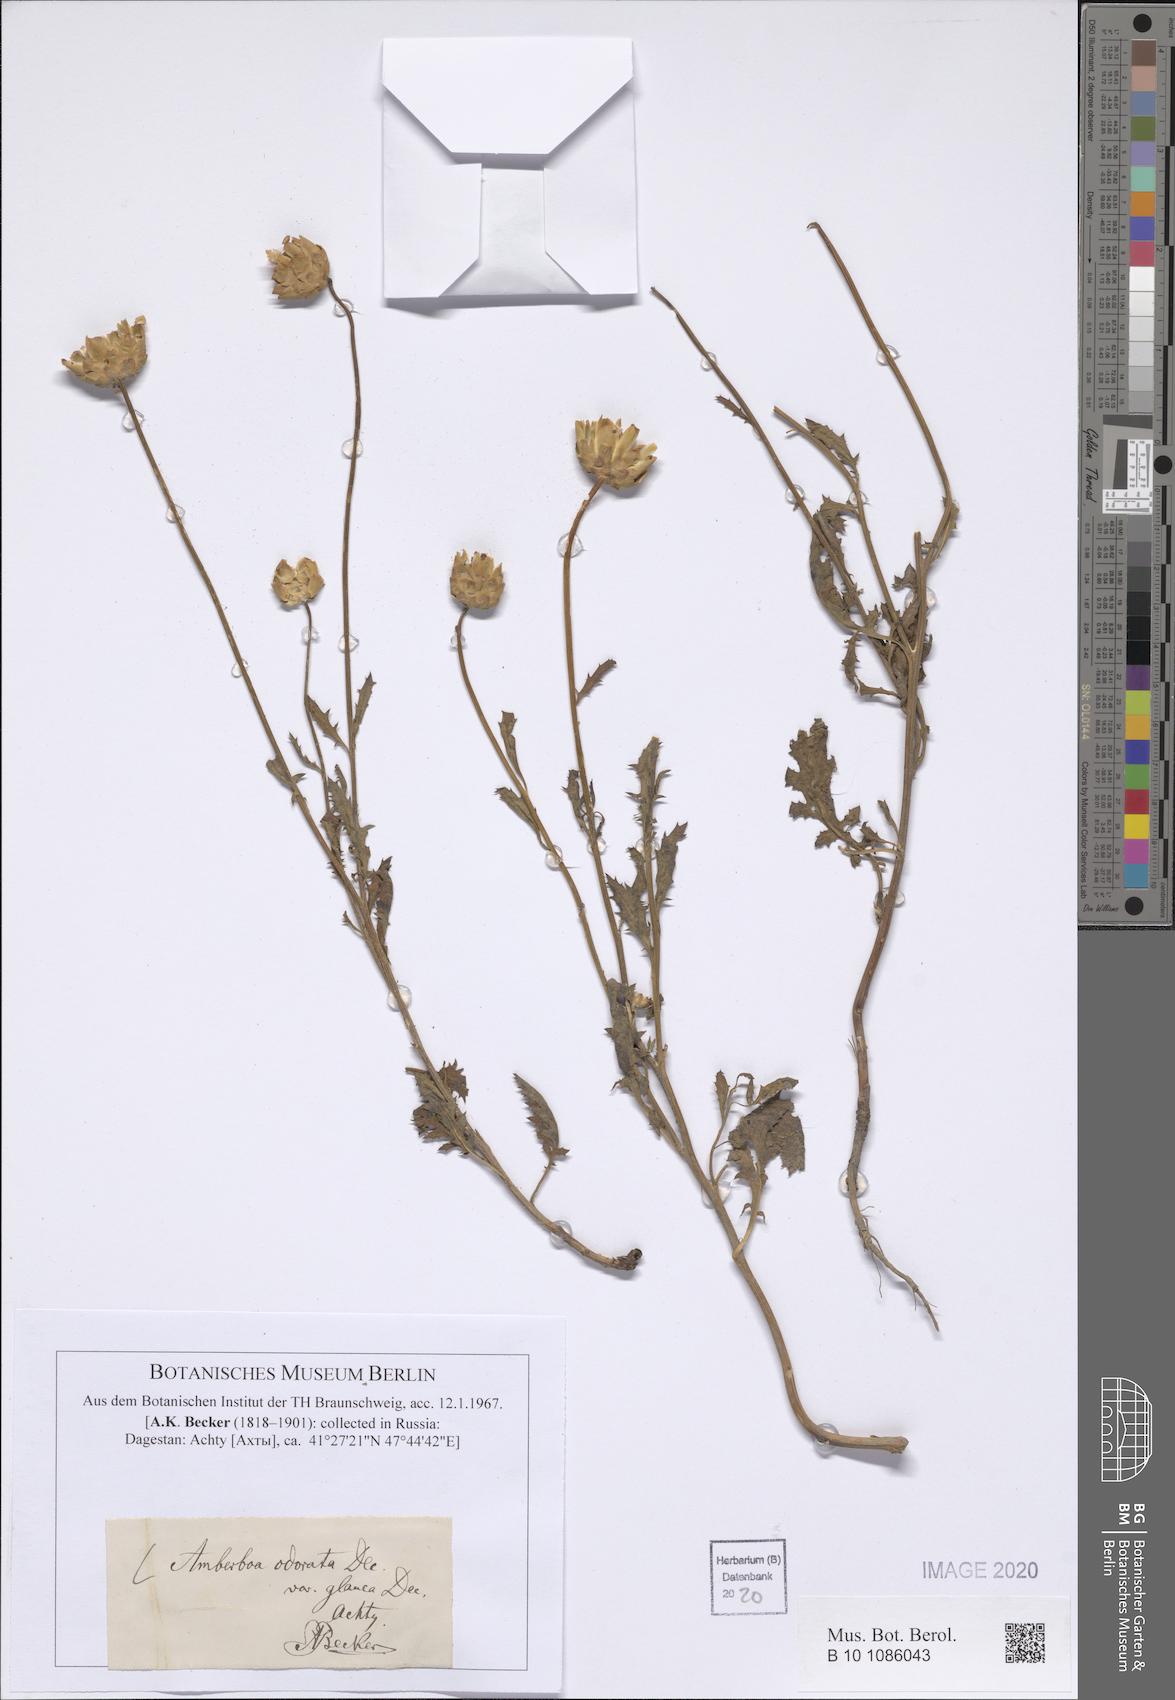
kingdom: Plantae
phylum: Tracheophyta
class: Magnoliopsida
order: Asterales
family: Asteraceae
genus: Amberboa
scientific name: Amberboa moschata
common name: Sweet-sultan
